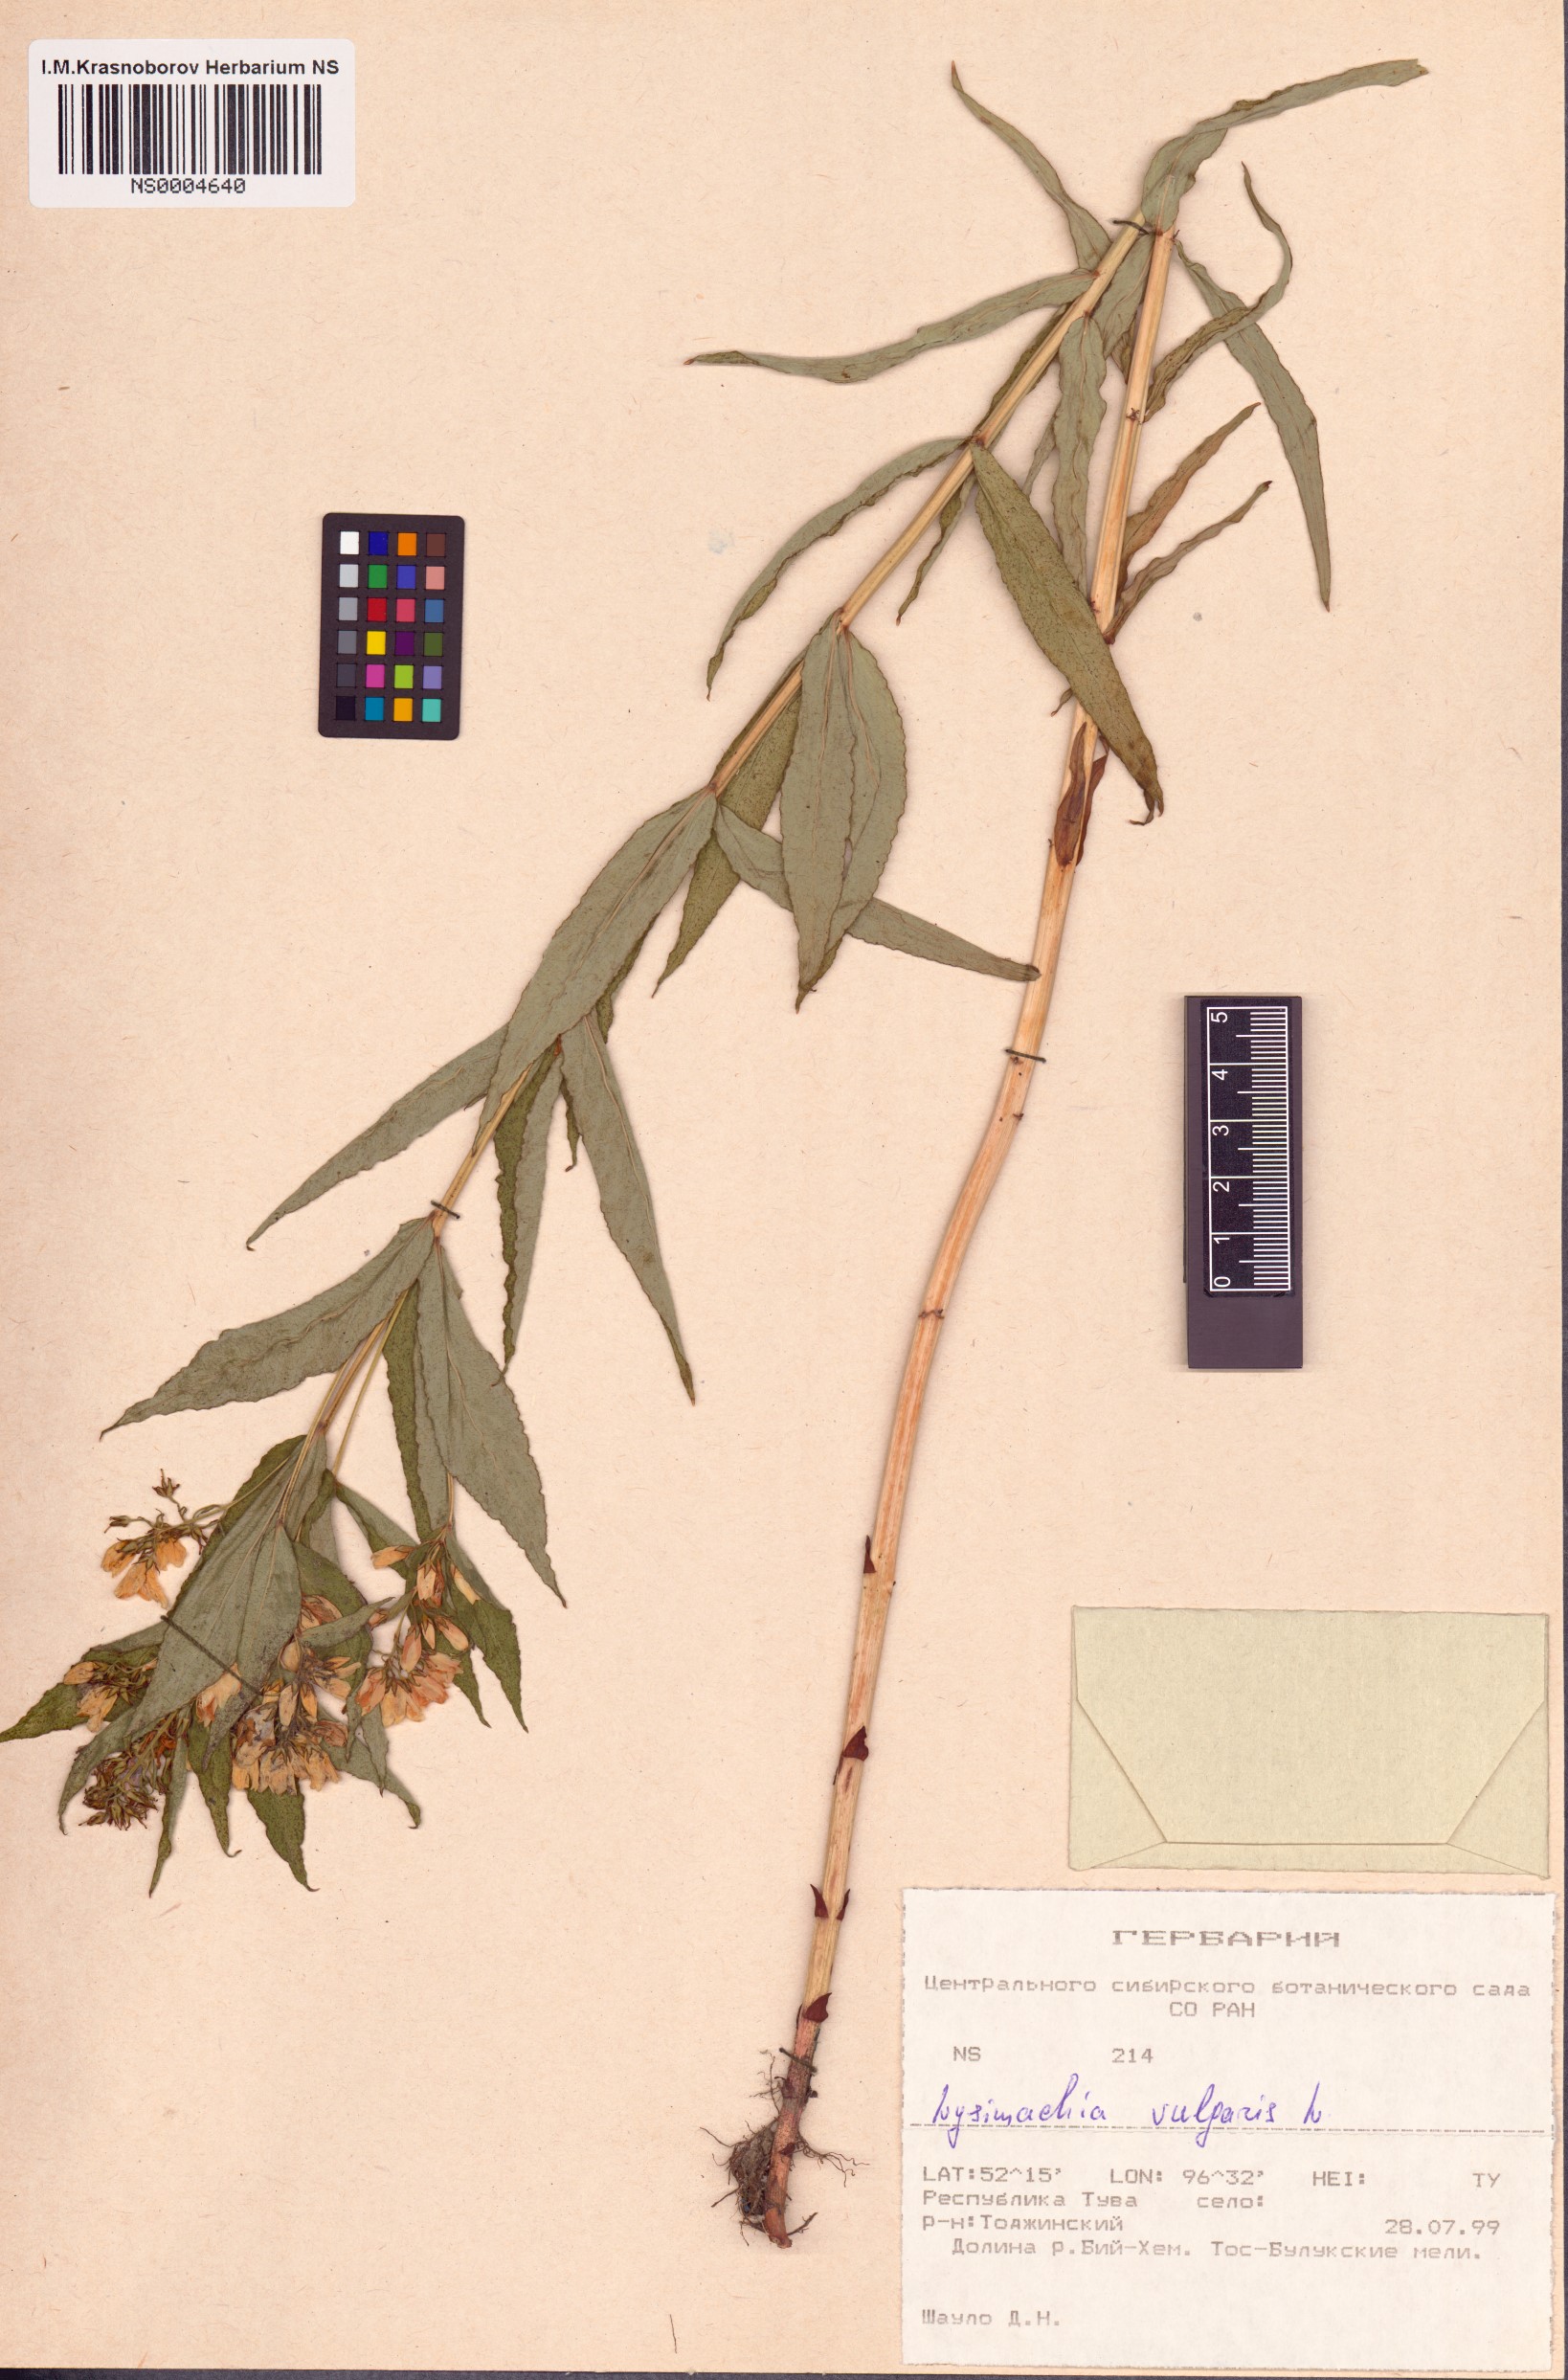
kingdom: Plantae
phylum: Tracheophyta
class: Magnoliopsida
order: Ericales
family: Primulaceae
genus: Lysimachia
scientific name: Lysimachia vulgaris
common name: Yellow loosestrife
